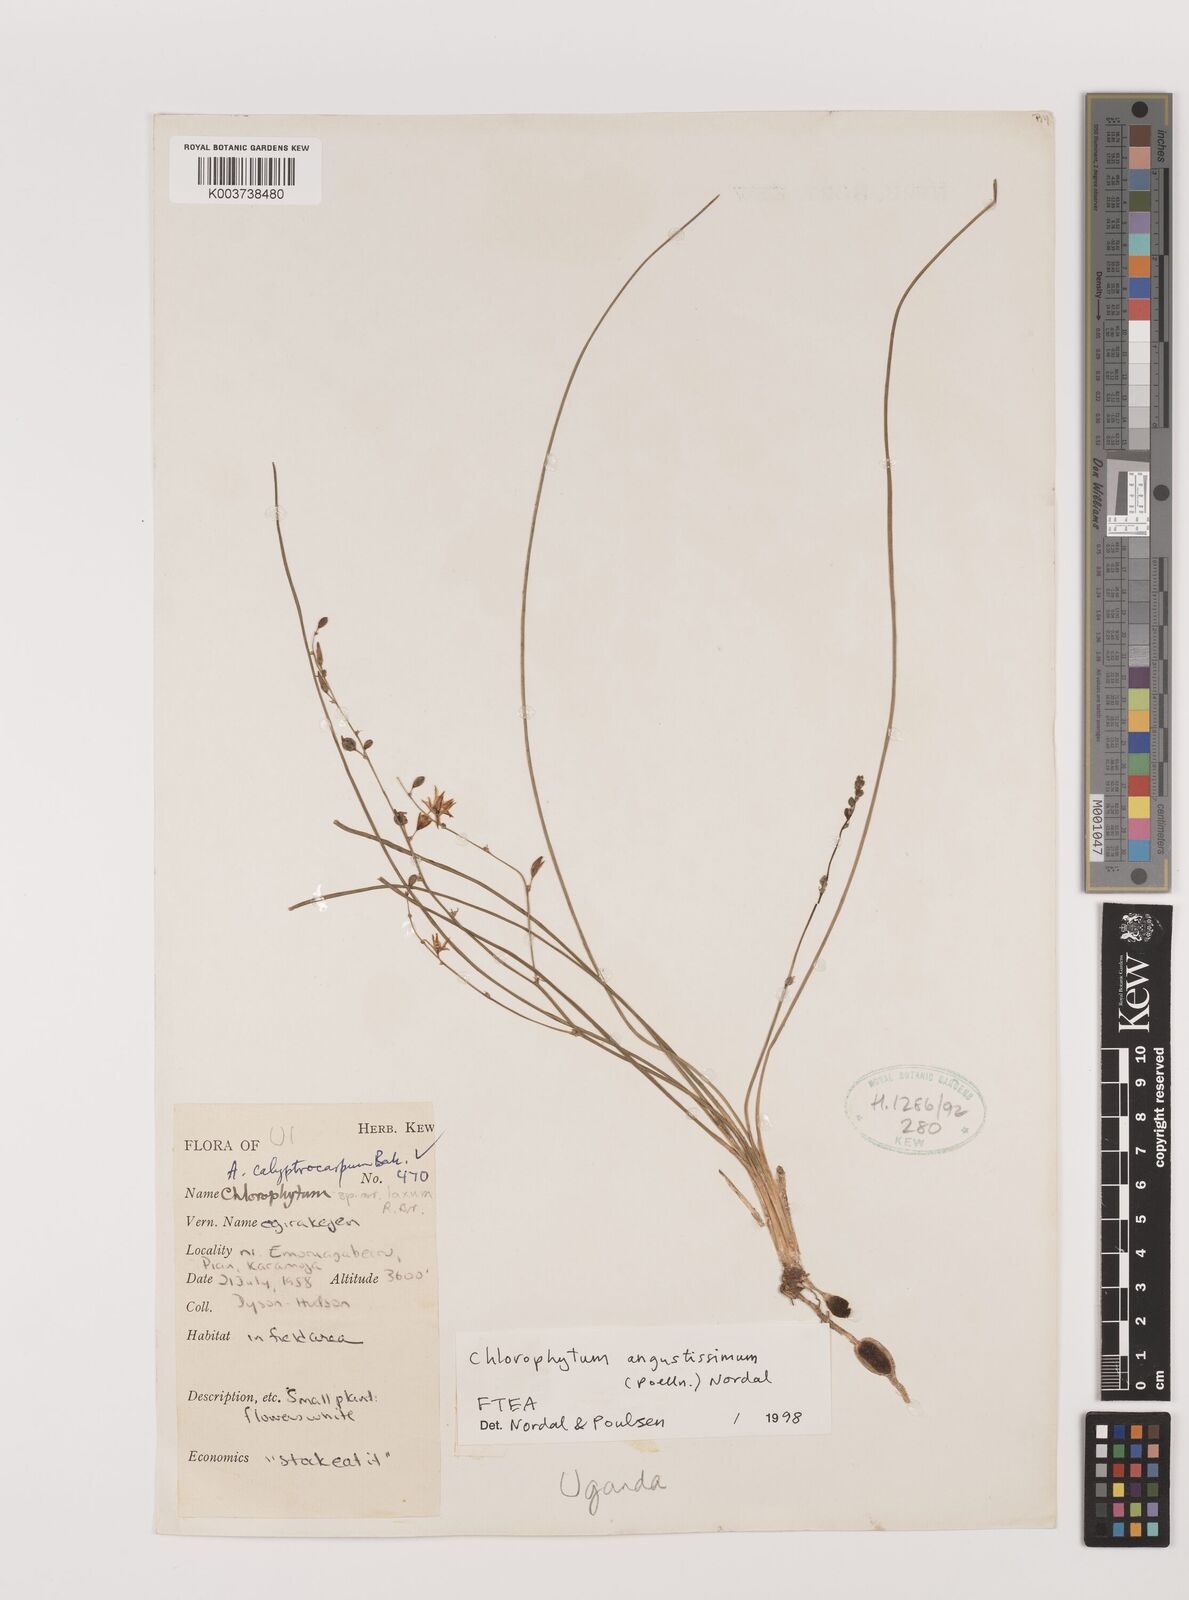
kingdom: Plantae
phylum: Tracheophyta
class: Liliopsida
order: Asparagales
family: Asparagaceae
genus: Chlorophytum
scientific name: Chlorophytum subpetiolatum
